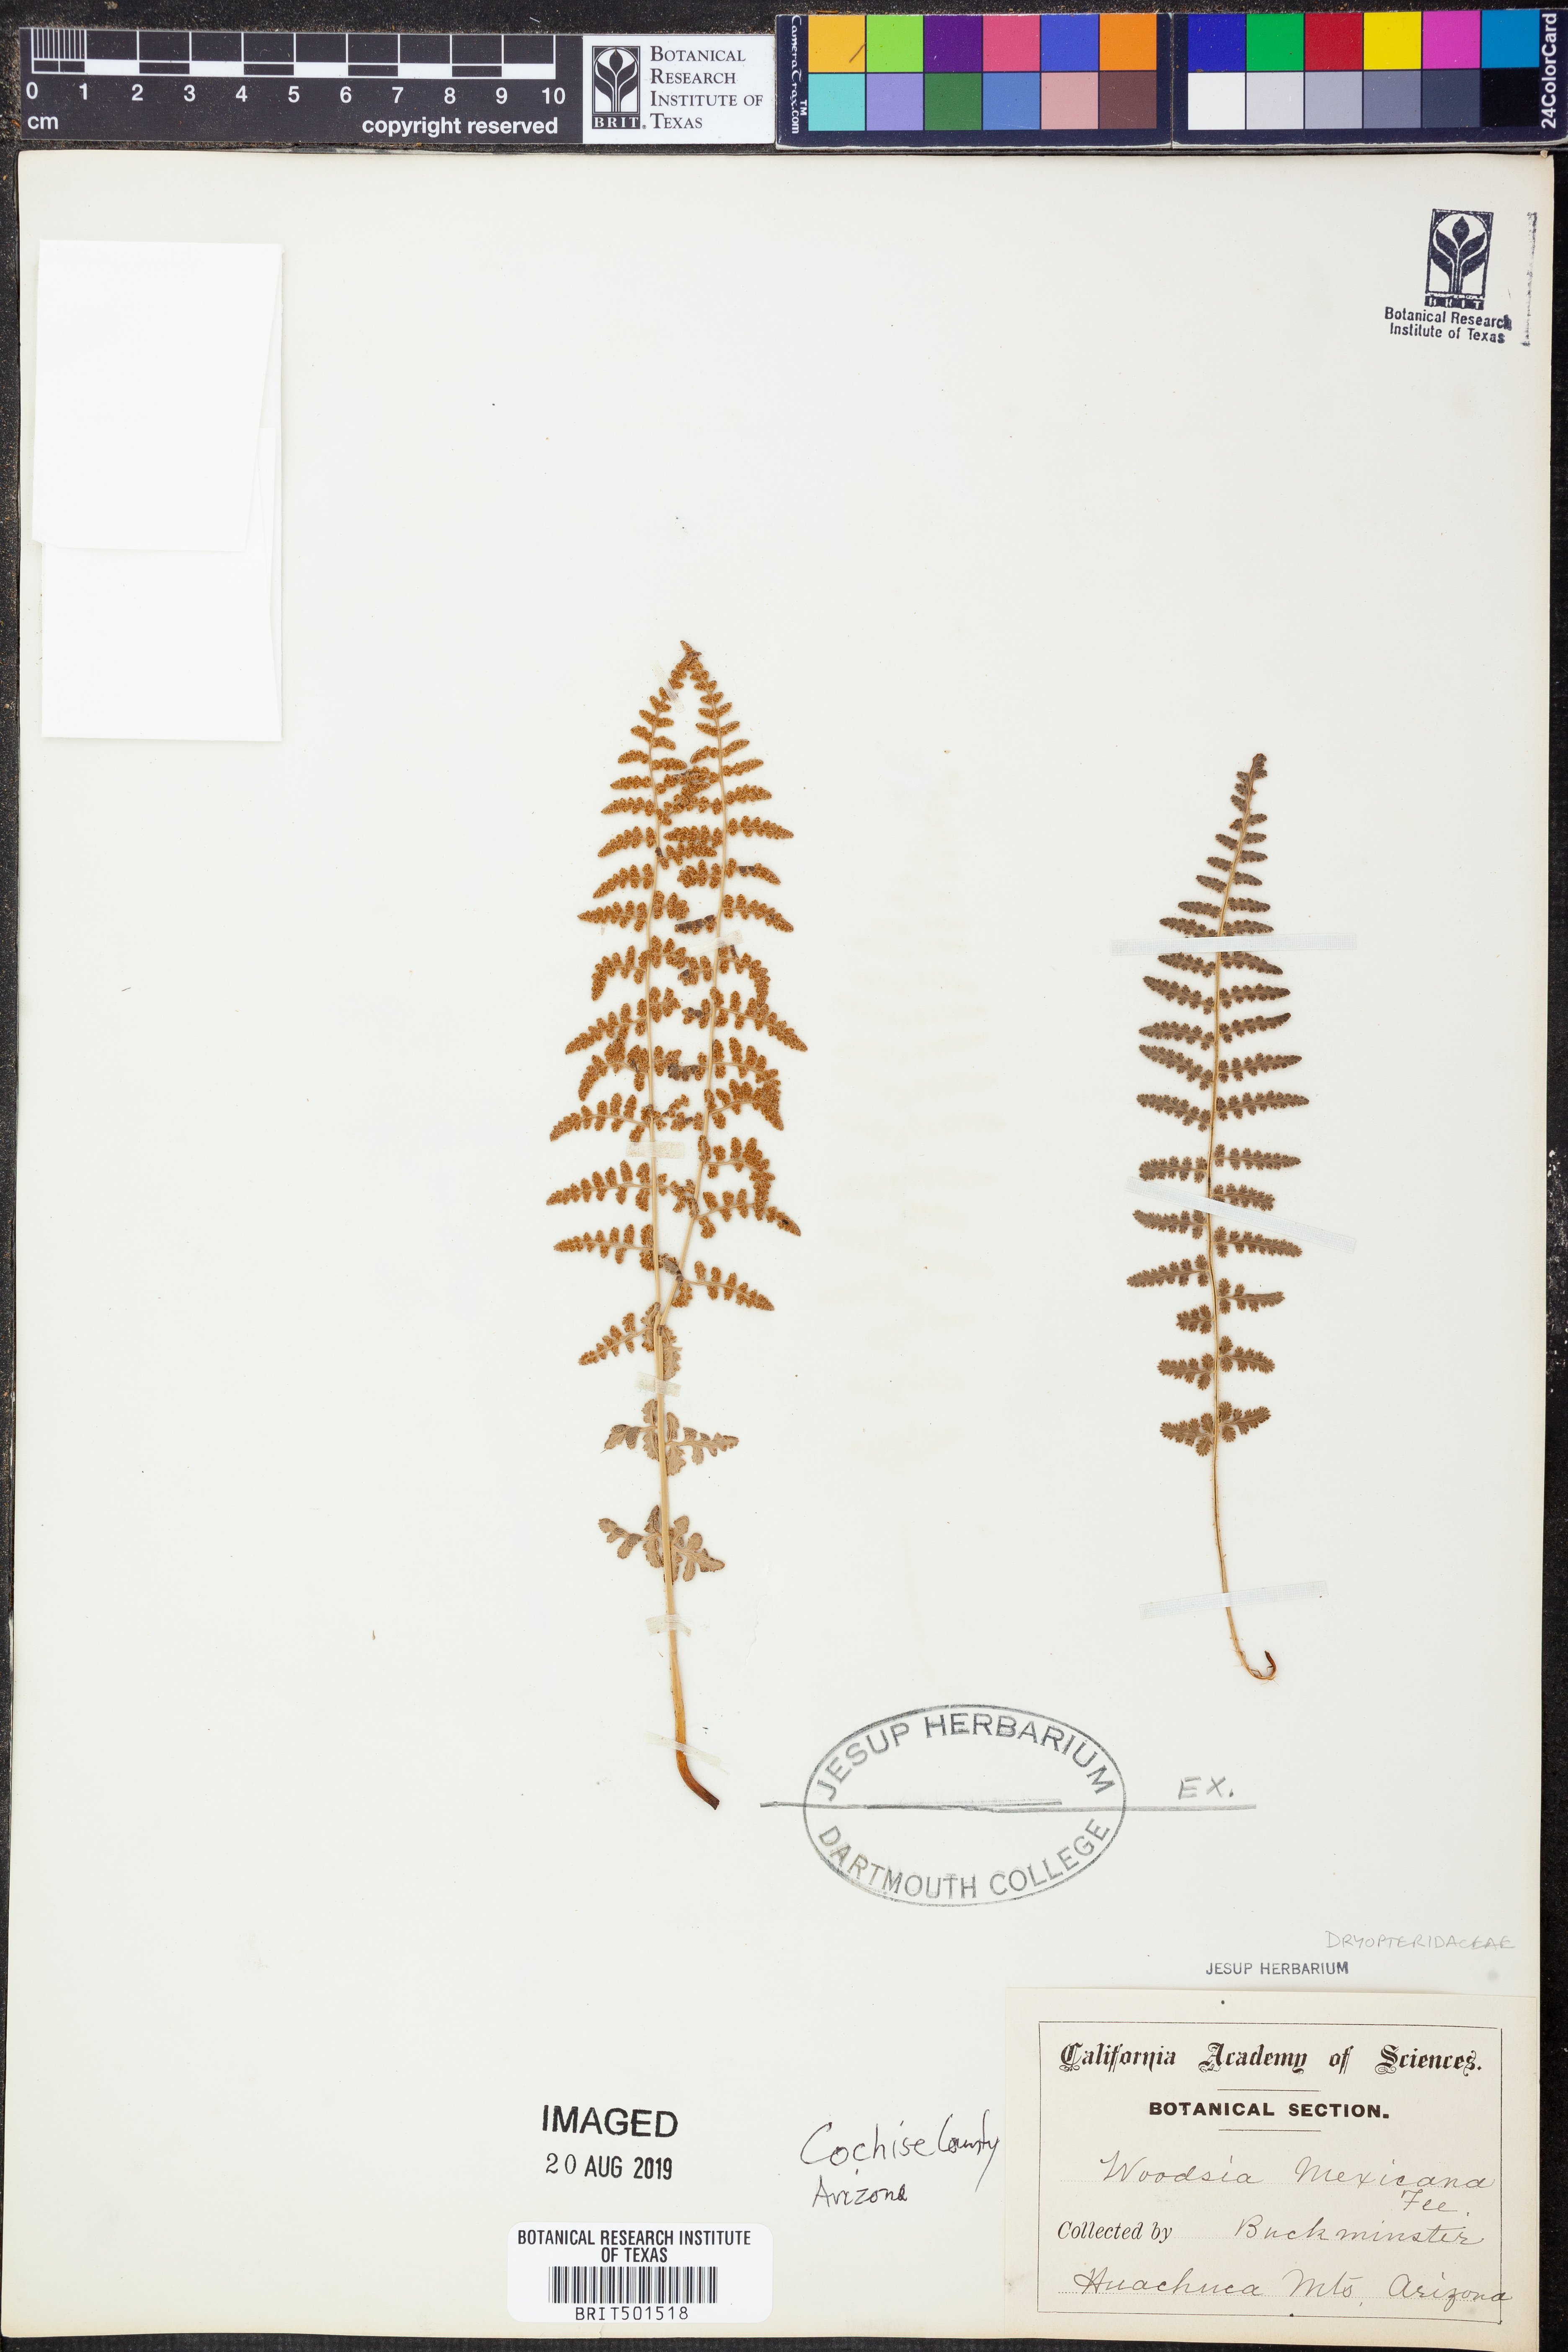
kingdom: Plantae
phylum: Tracheophyta
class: Polypodiopsida
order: Polypodiales
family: Woodsiaceae
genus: Physematium
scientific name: Physematium mexicanum
